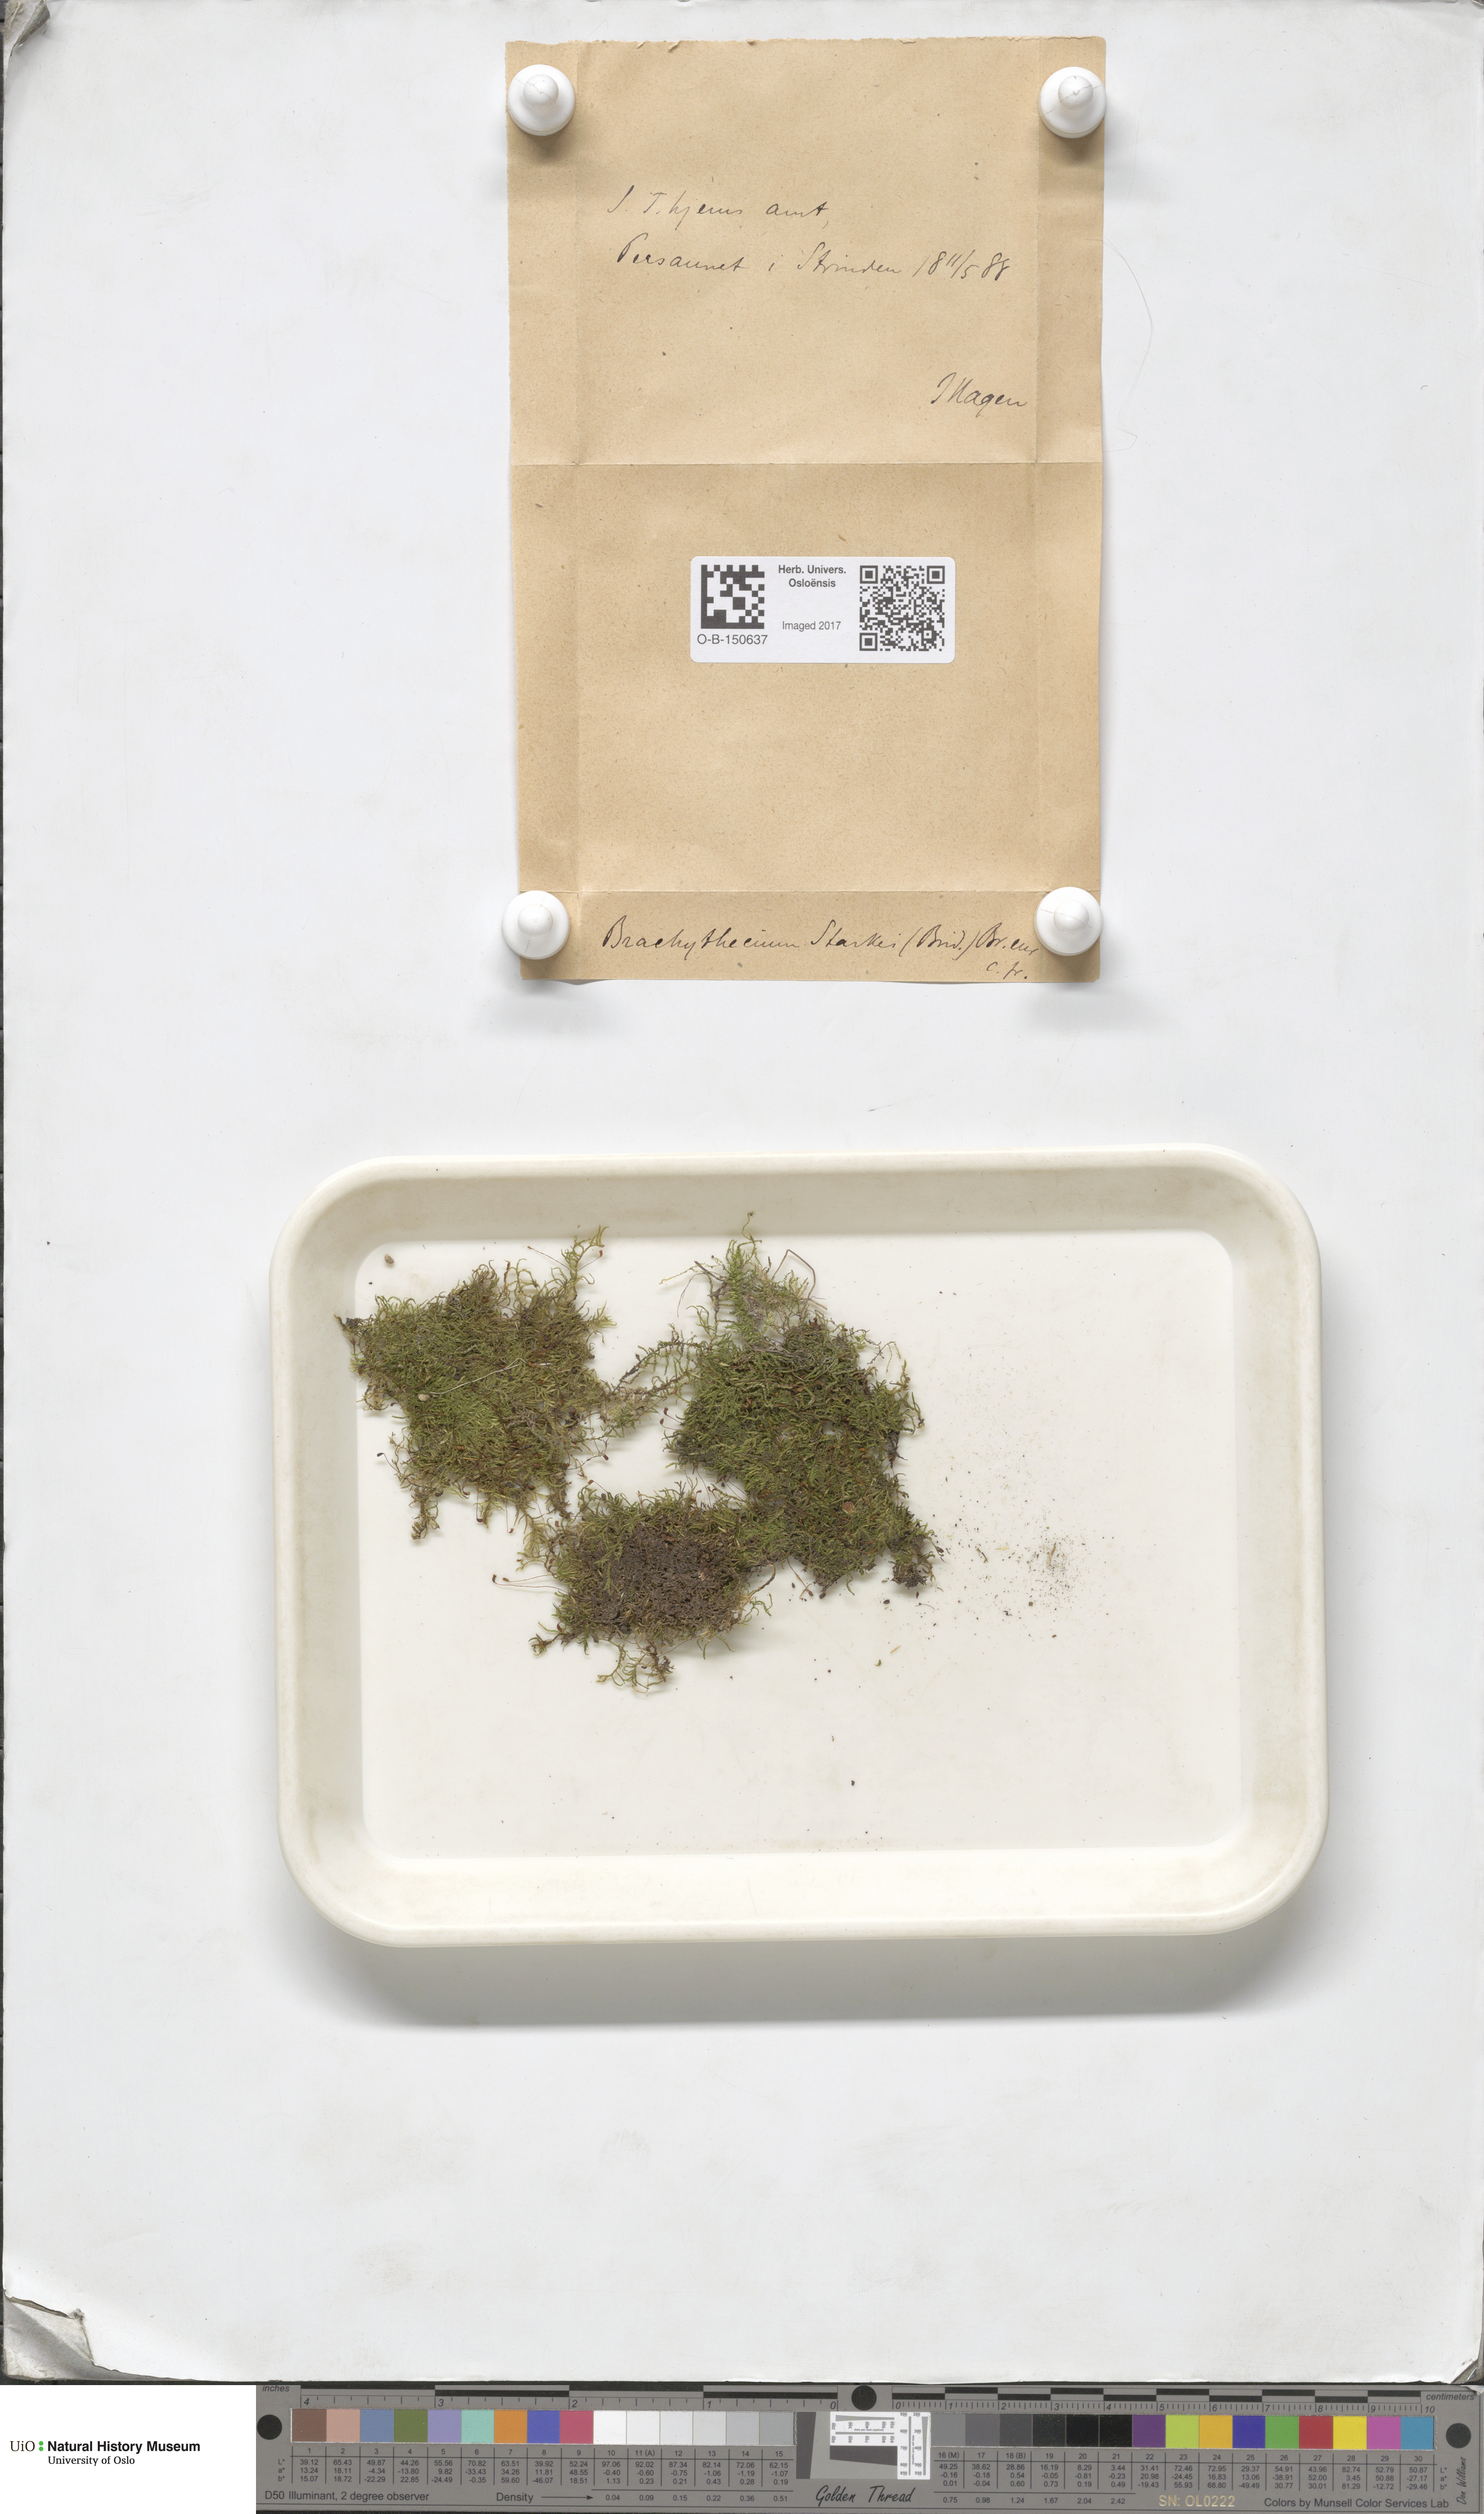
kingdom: Plantae
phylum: Bryophyta
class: Bryopsida
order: Hypnales
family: Brachytheciaceae
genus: Sciuro-hypnum
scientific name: Sciuro-hypnum starkei
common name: Starke's feather-moss
